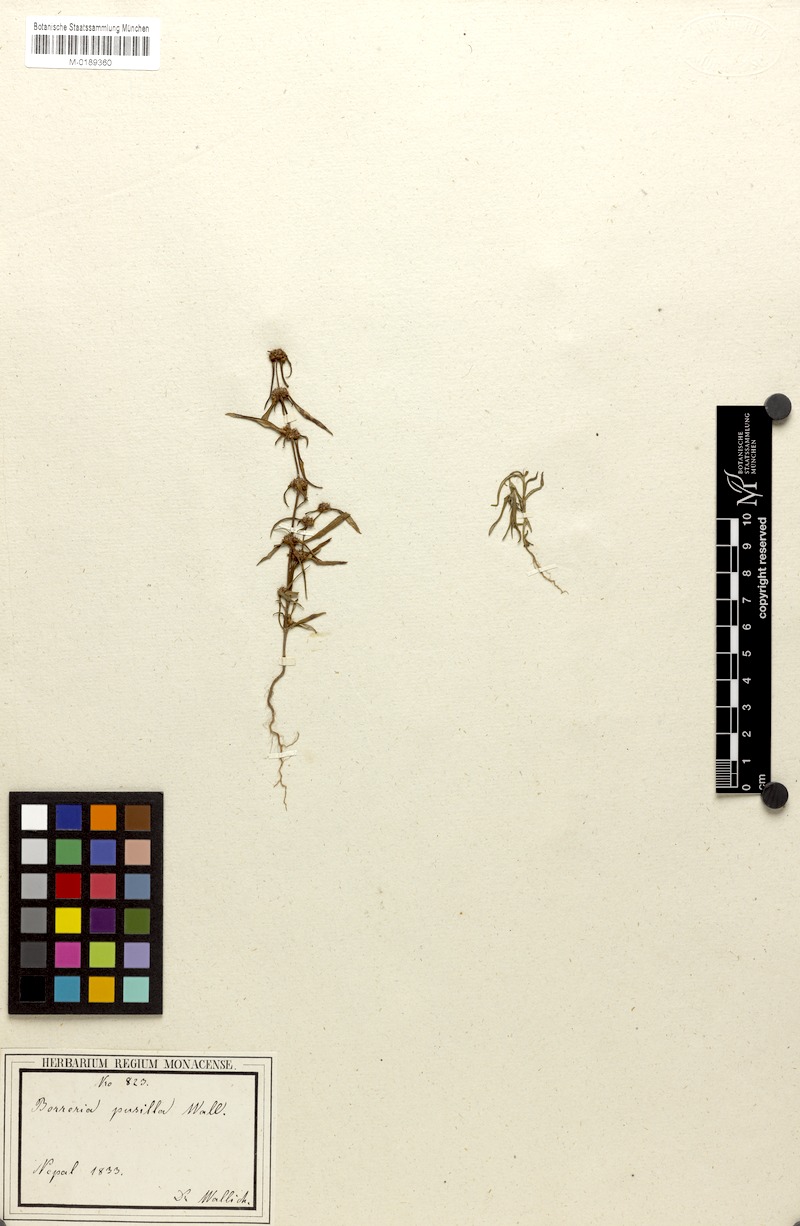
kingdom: Plantae
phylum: Tracheophyta
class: Magnoliopsida
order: Gentianales
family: Rubiaceae
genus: Spermacoce
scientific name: Spermacoce pusilla
